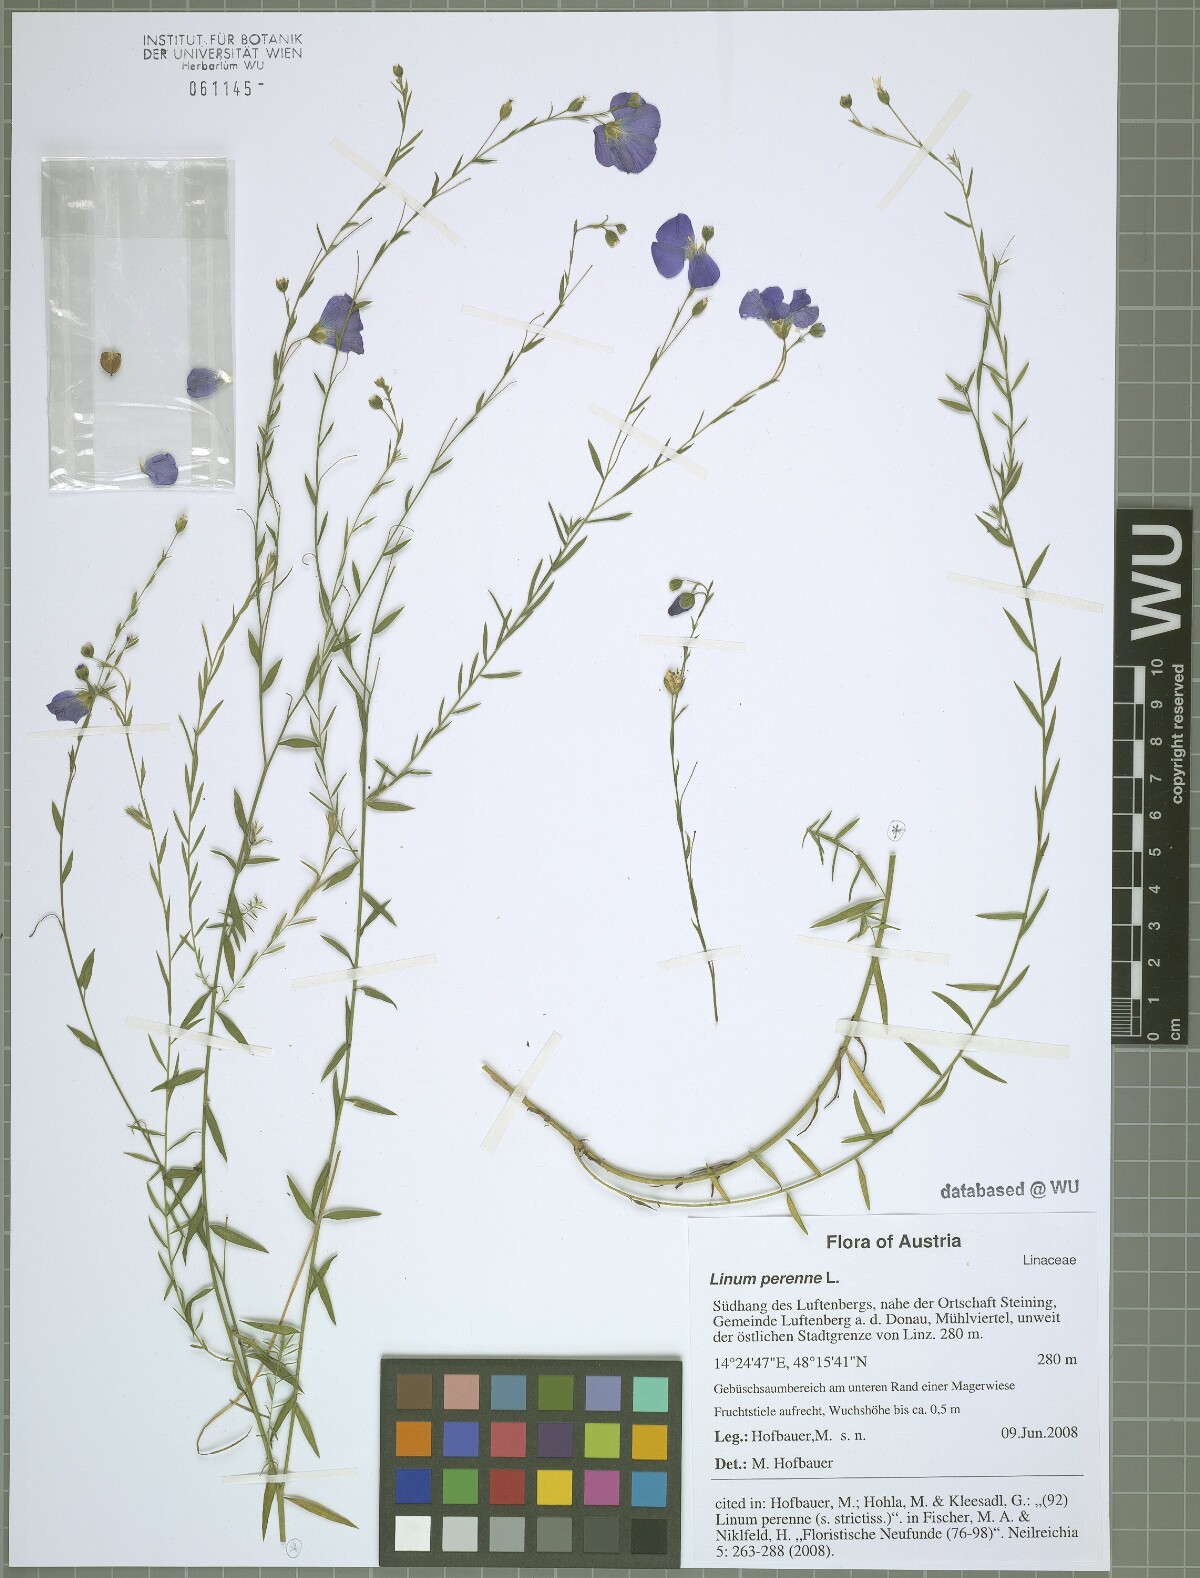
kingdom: Plantae
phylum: Tracheophyta
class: Magnoliopsida
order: Malpighiales
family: Linaceae
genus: Linum
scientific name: Linum perenne
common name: Blue flax
